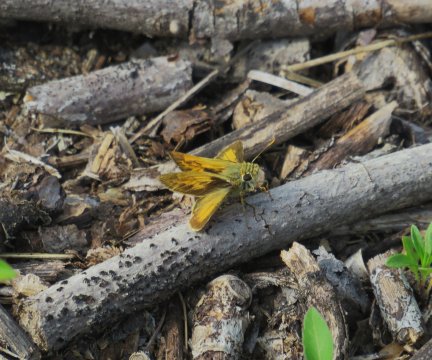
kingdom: Animalia
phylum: Arthropoda
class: Insecta
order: Lepidoptera
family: Hesperiidae
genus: Polites
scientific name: Polites vibex
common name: Whirlabout
